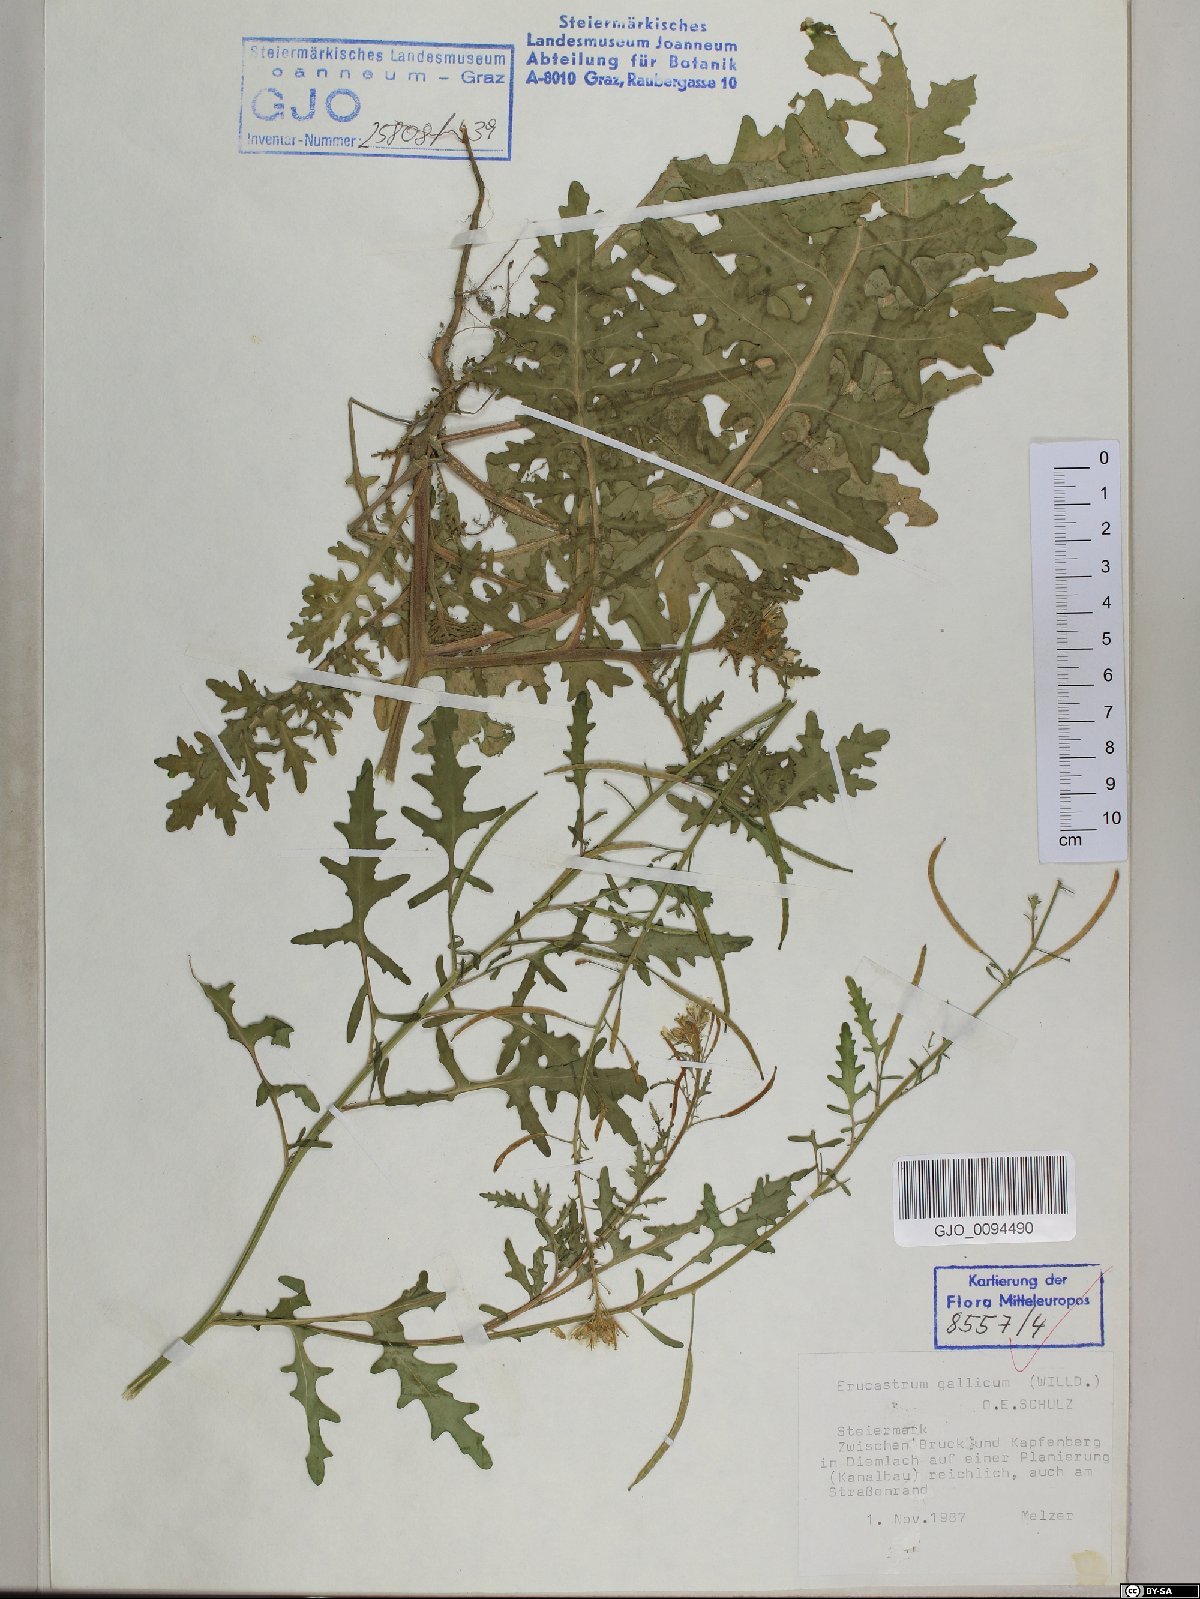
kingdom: Plantae
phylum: Tracheophyta
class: Magnoliopsida
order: Brassicales
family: Brassicaceae
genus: Erucastrum
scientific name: Erucastrum gallicum
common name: Hairy rocket
